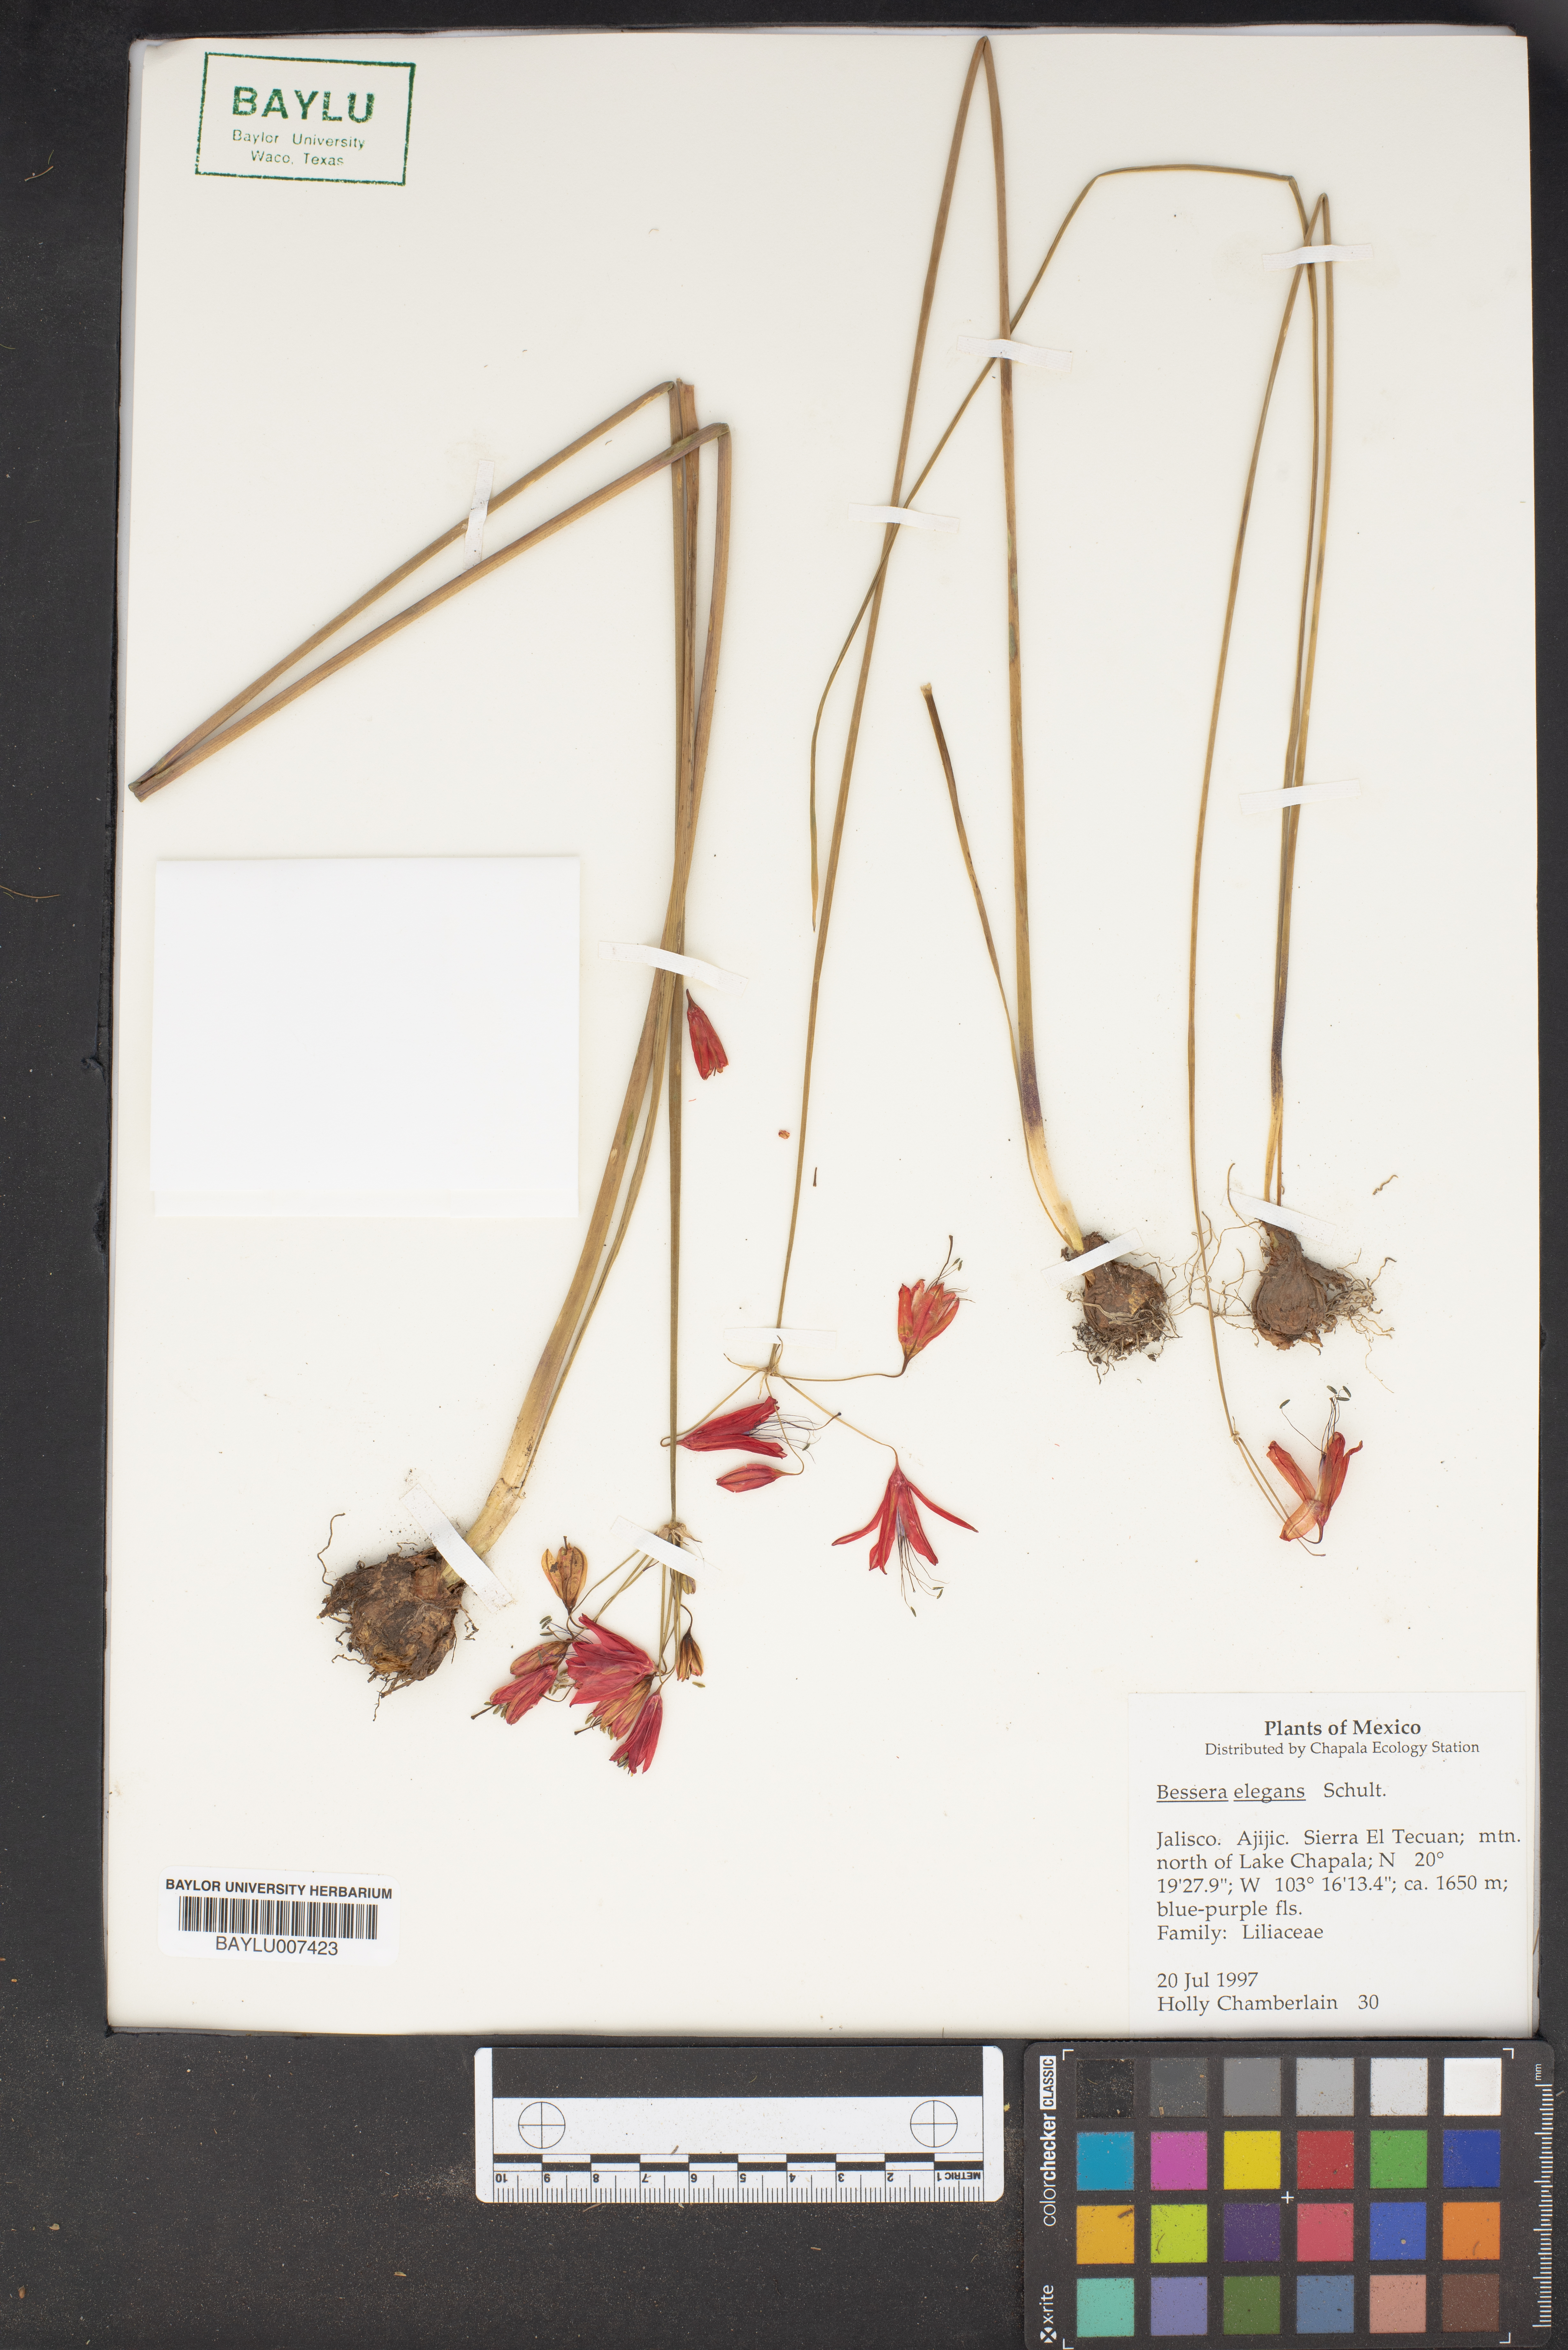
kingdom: Plantae
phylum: Tracheophyta
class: Liliopsida
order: Asparagales
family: Asparagaceae
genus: Bessera
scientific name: Bessera elegans
